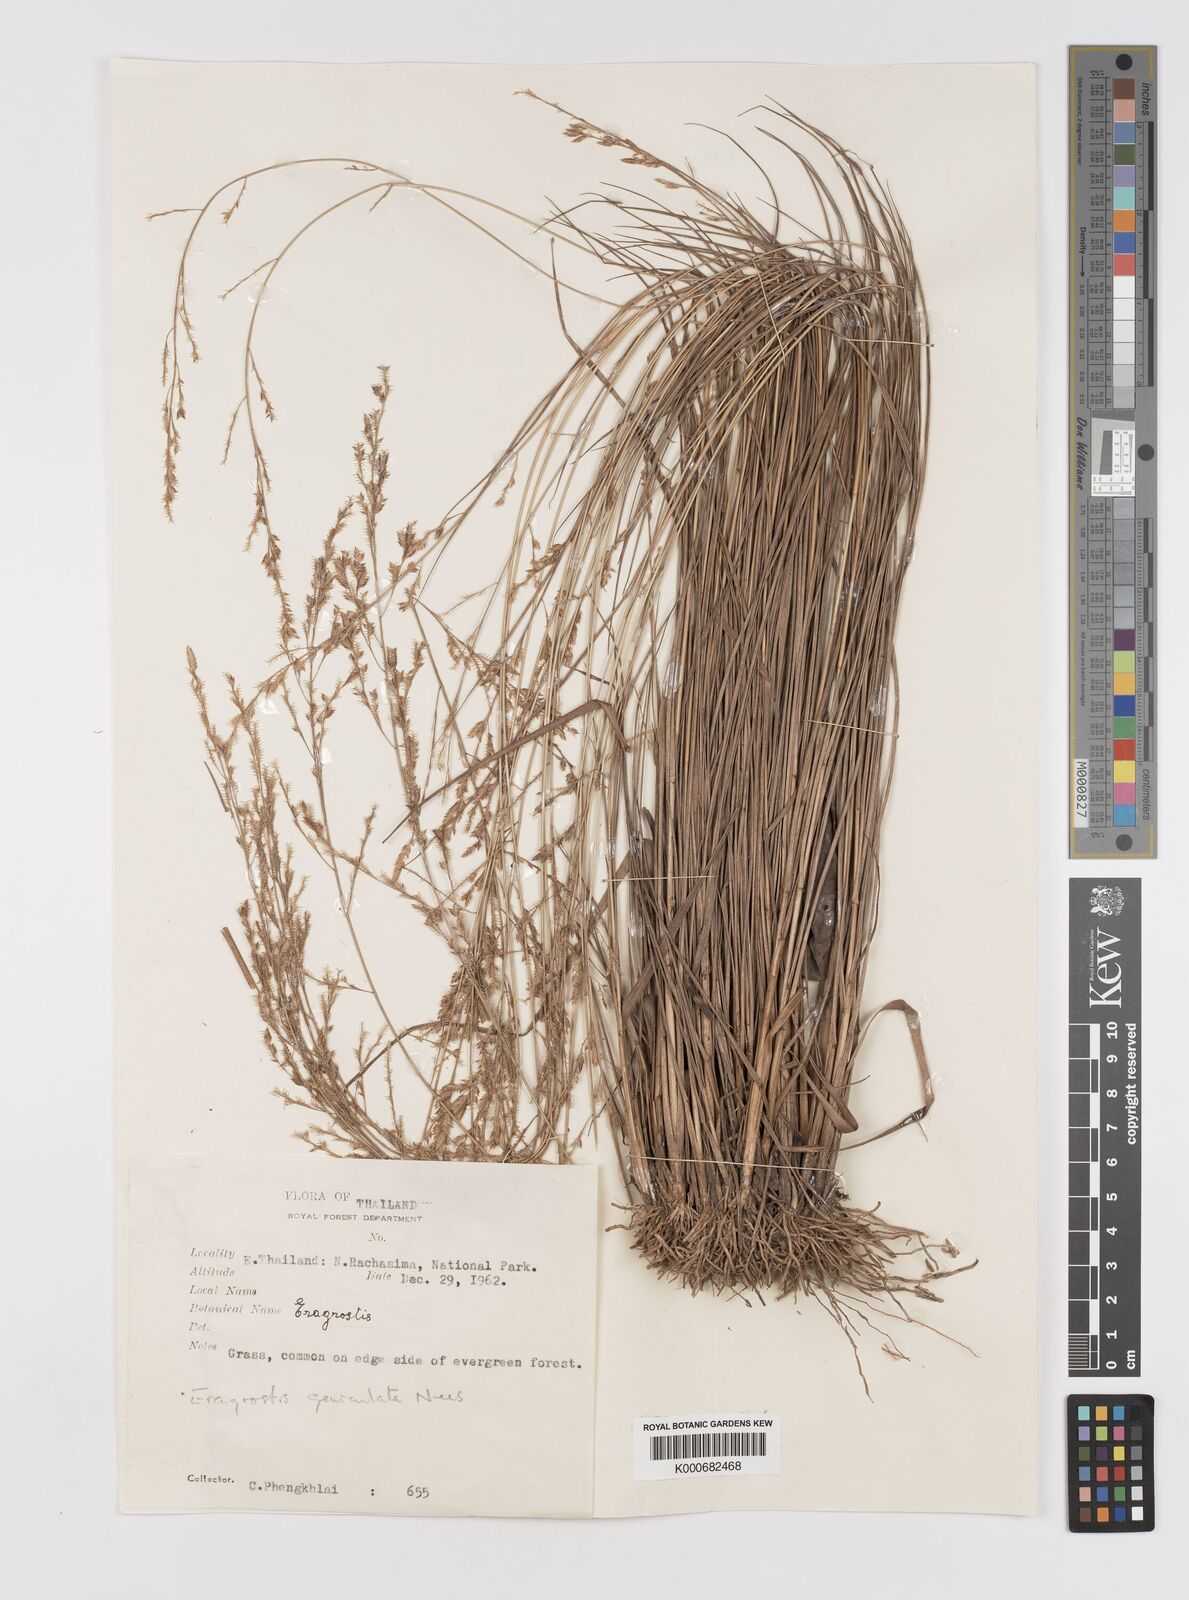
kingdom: Plantae
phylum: Tracheophyta
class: Liliopsida
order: Poales
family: Poaceae
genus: Eragrostis
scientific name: Eragrostis cylindrica
